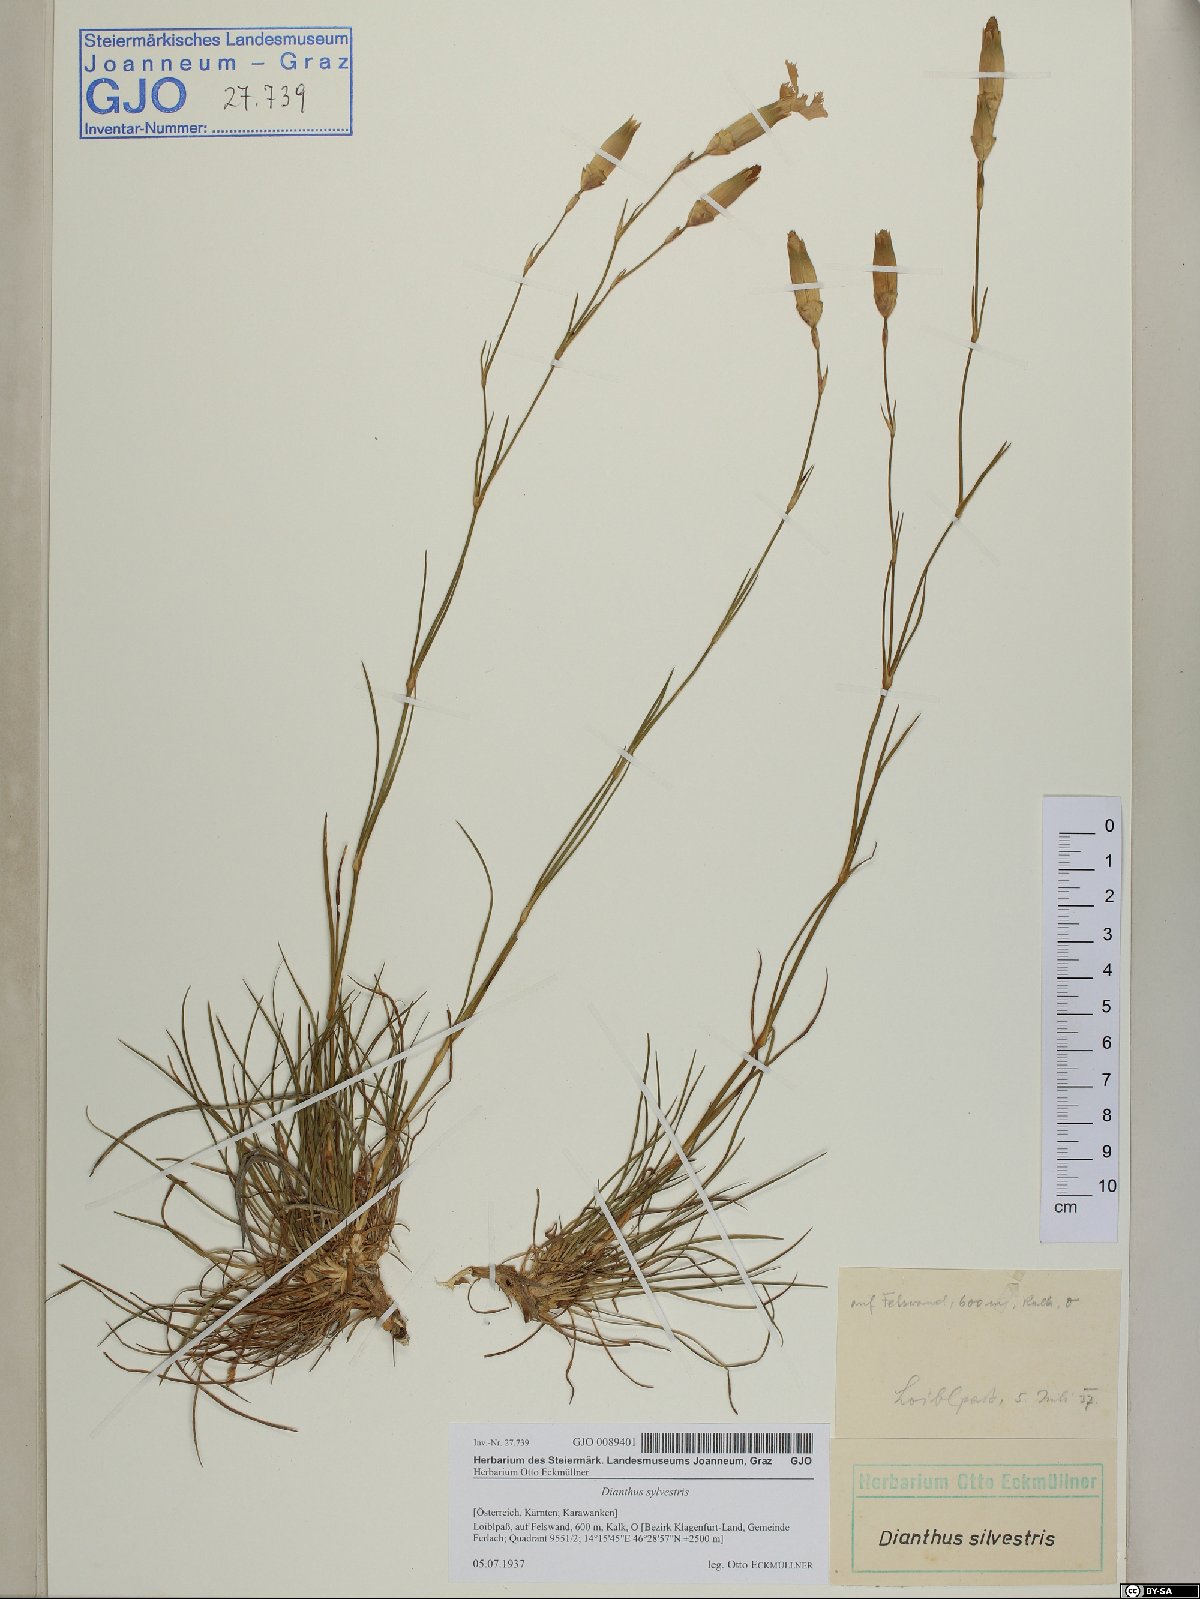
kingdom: Plantae
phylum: Tracheophyta
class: Magnoliopsida
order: Caryophyllales
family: Caryophyllaceae
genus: Dianthus
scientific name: Dianthus sylvestris
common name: Wood pink
